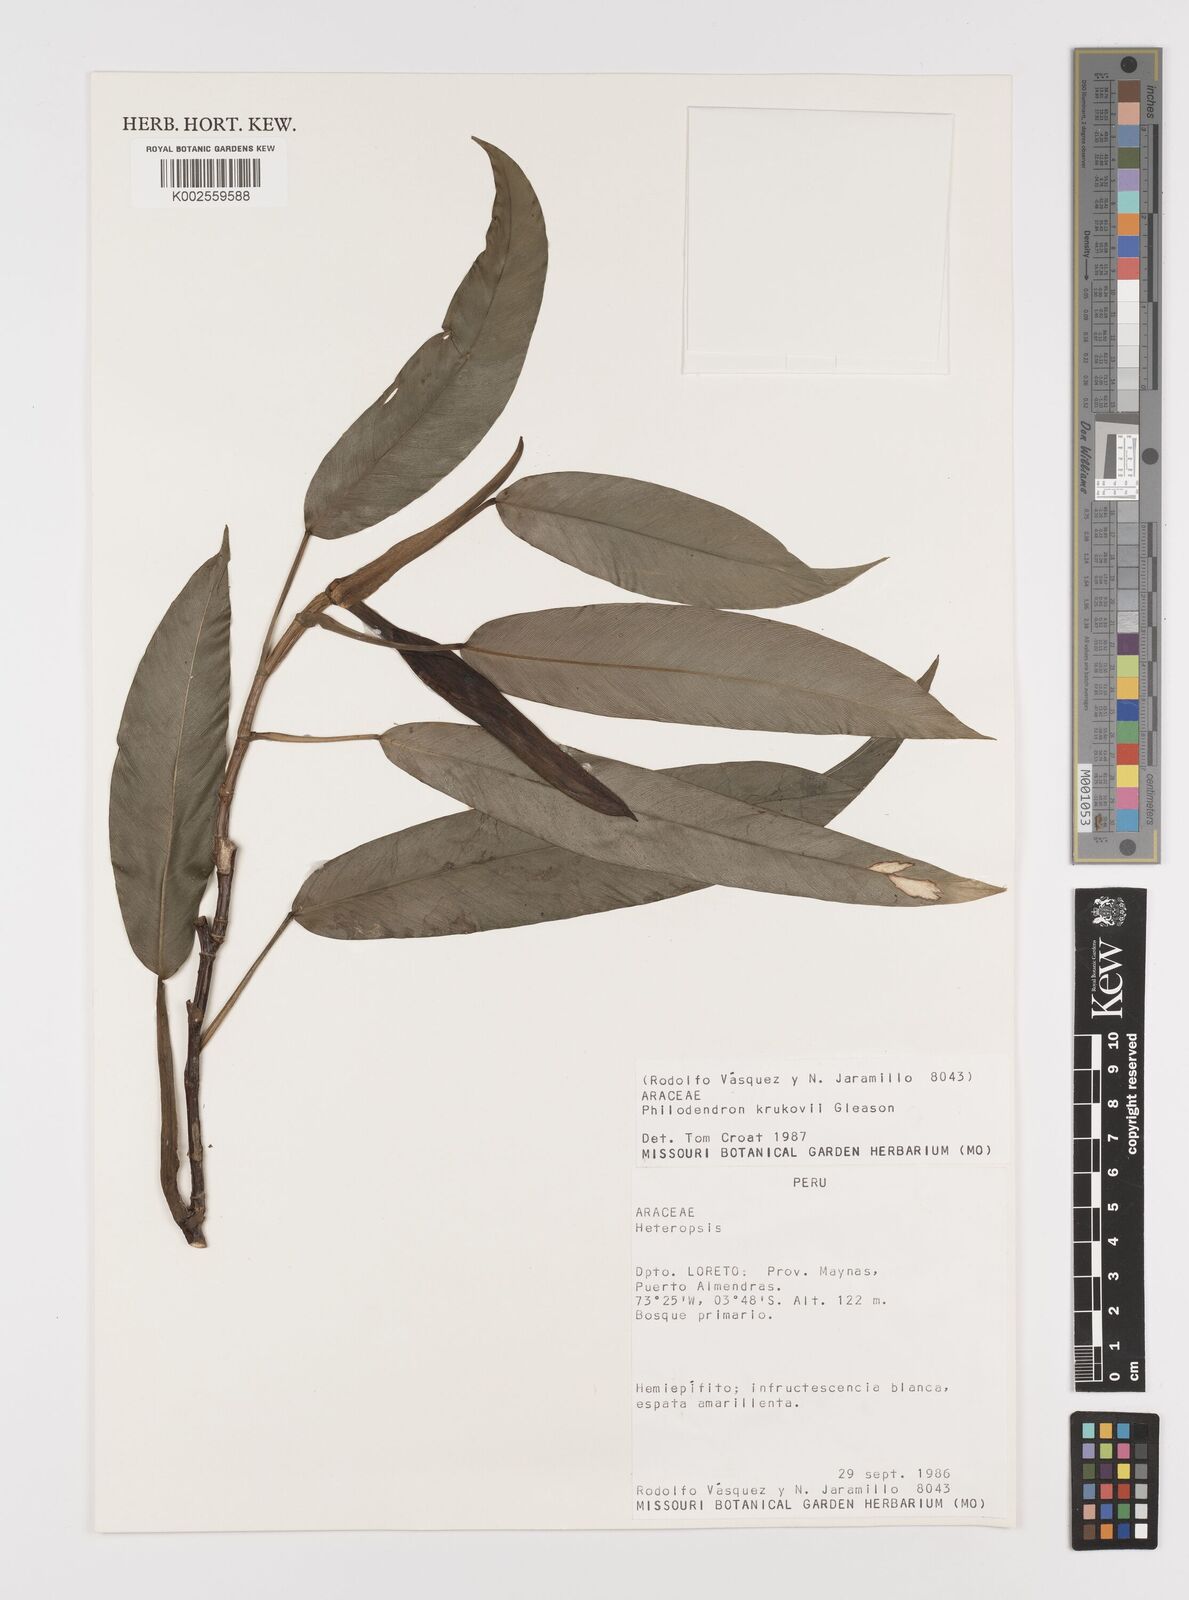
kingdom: Plantae
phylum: Tracheophyta
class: Liliopsida
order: Alismatales
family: Araceae
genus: Philodendron
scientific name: Philodendron guttiferum
